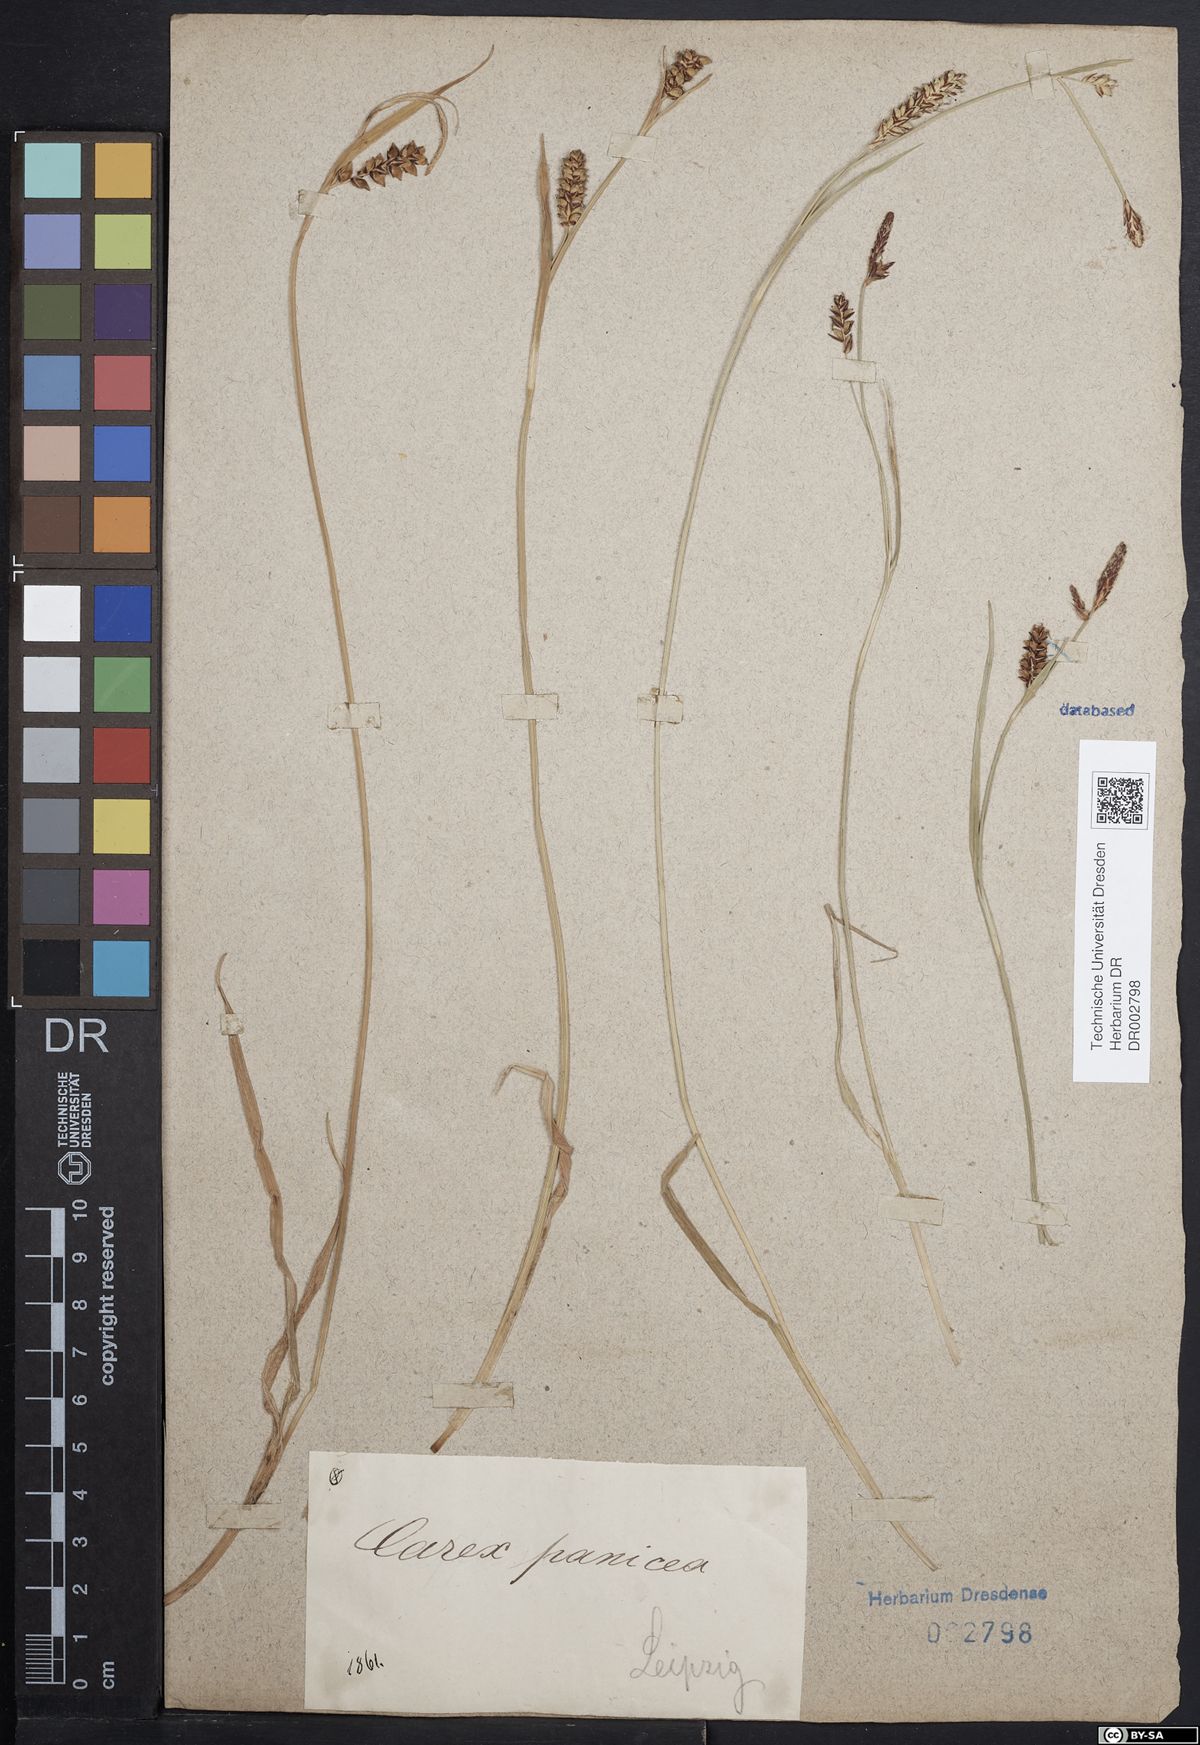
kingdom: Plantae
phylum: Tracheophyta
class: Liliopsida
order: Poales
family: Cyperaceae
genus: Carex
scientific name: Carex panicea
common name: Carnation sedge
